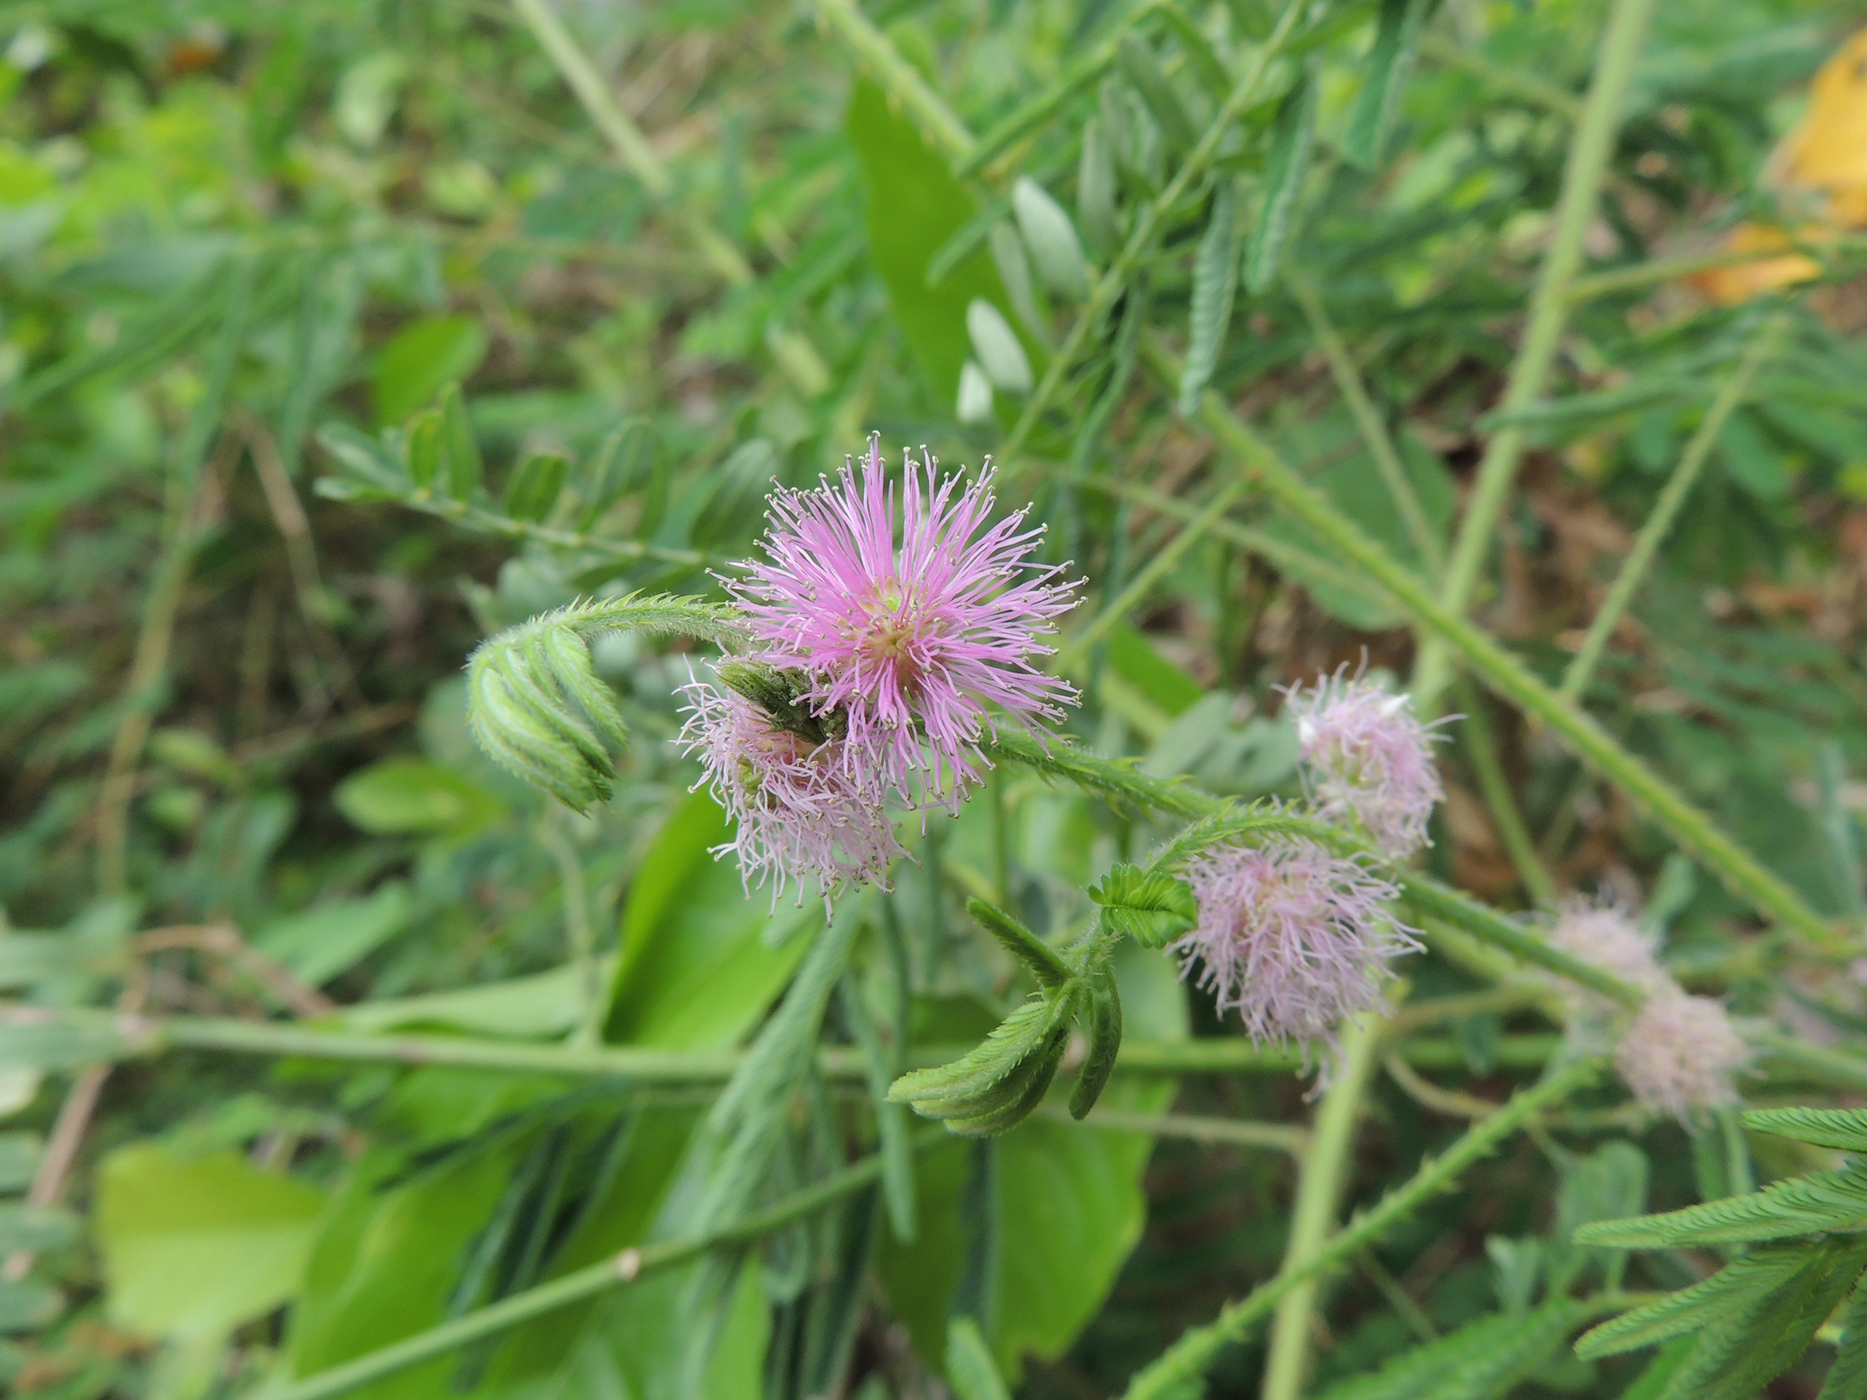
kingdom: Plantae
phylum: Tracheophyta
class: Magnoliopsida
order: Fabales
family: Fabaceae
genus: Mimosa
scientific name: Mimosa diplotricha
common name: Giant sensitive-plant
